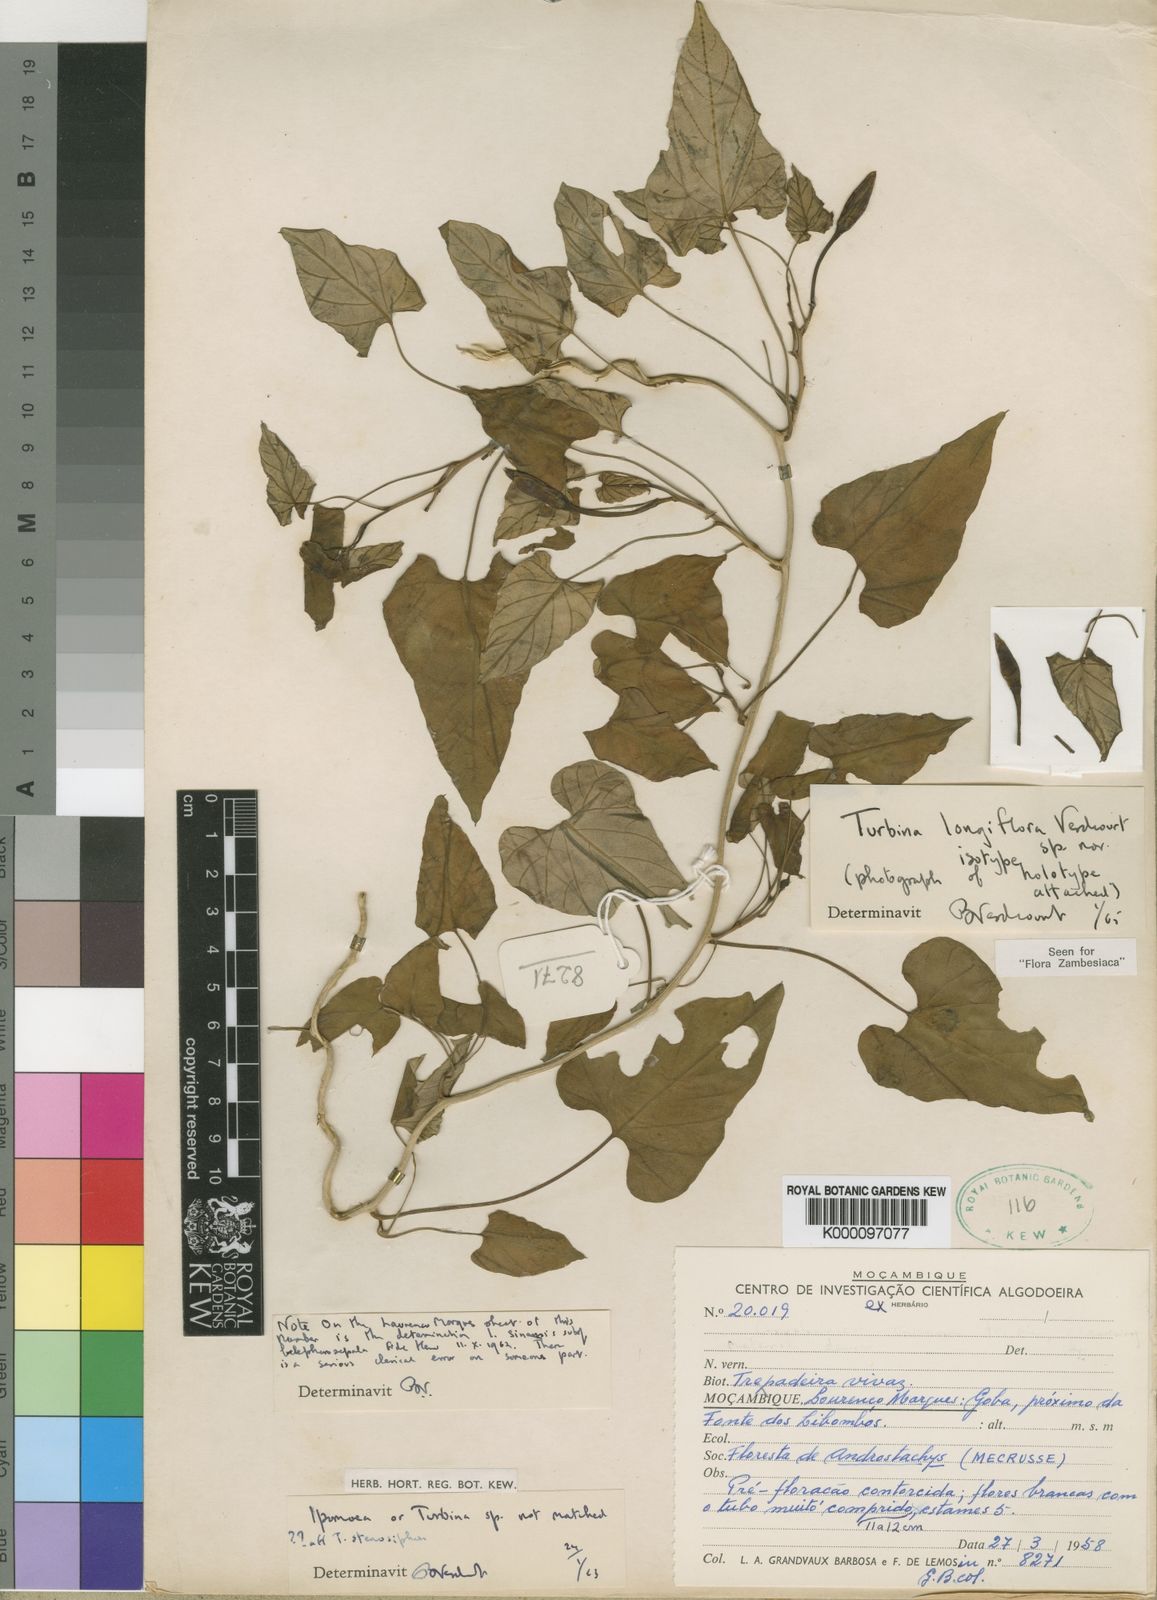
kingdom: Plantae
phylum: Tracheophyta
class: Magnoliopsida
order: Solanales
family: Convolvulaceae
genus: Ipomoea
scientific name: Ipomoea mozambicensis
